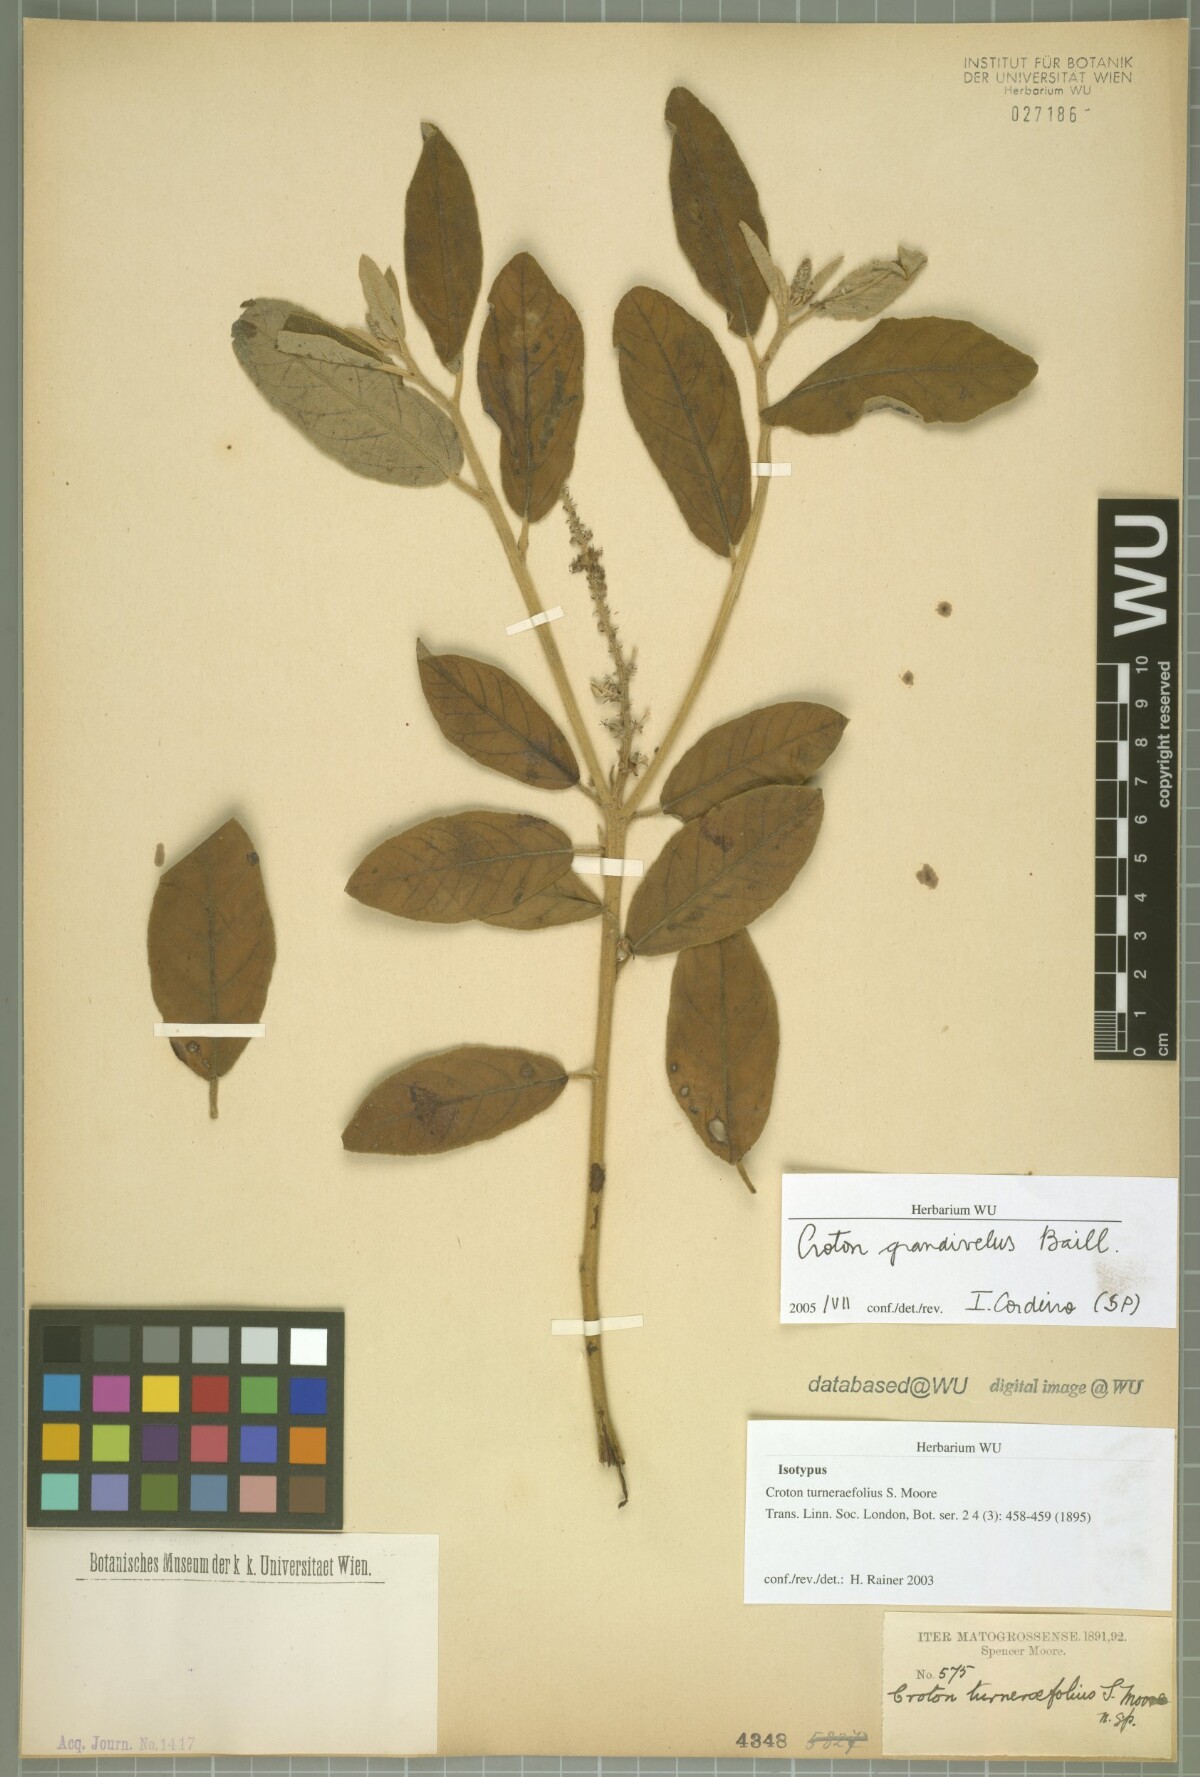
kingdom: Plantae
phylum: Tracheophyta
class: Magnoliopsida
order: Malpighiales
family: Euphorbiaceae
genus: Croton
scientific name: Croton fulvus
